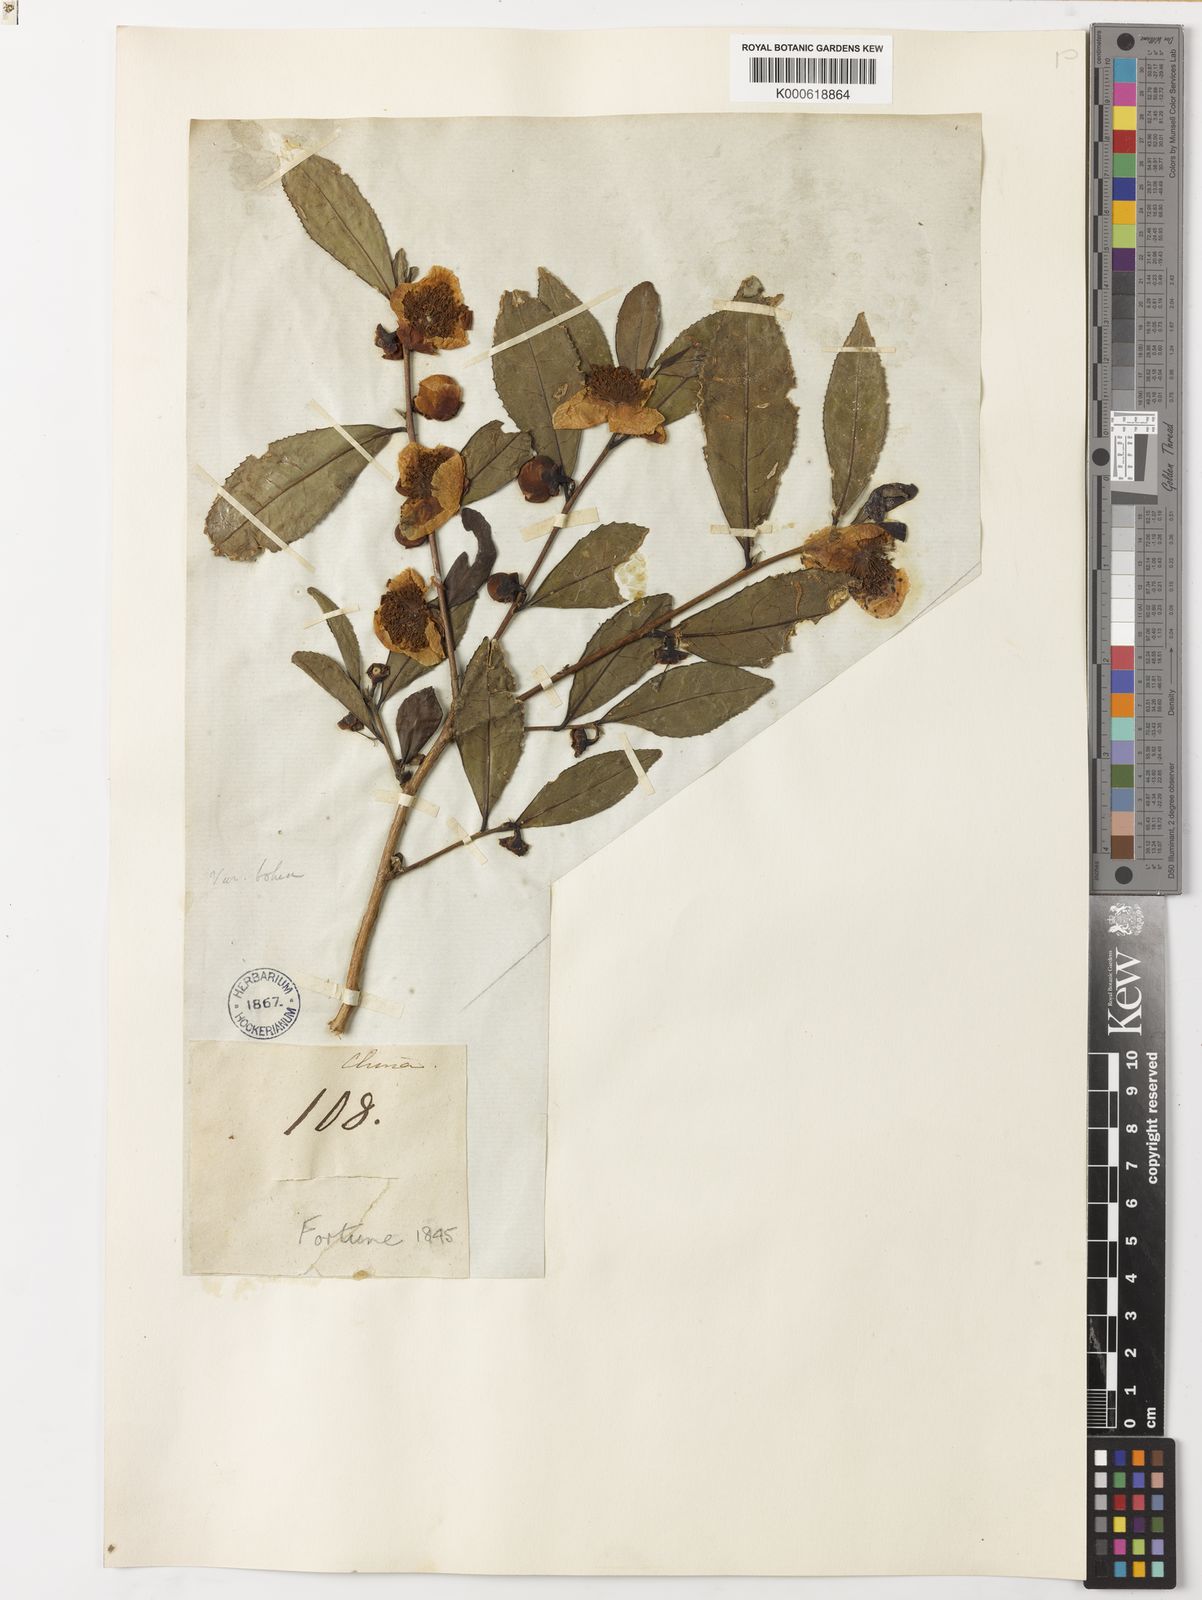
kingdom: Plantae
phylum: Tracheophyta
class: Magnoliopsida
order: Ericales
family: Theaceae
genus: Camellia
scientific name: Camellia
